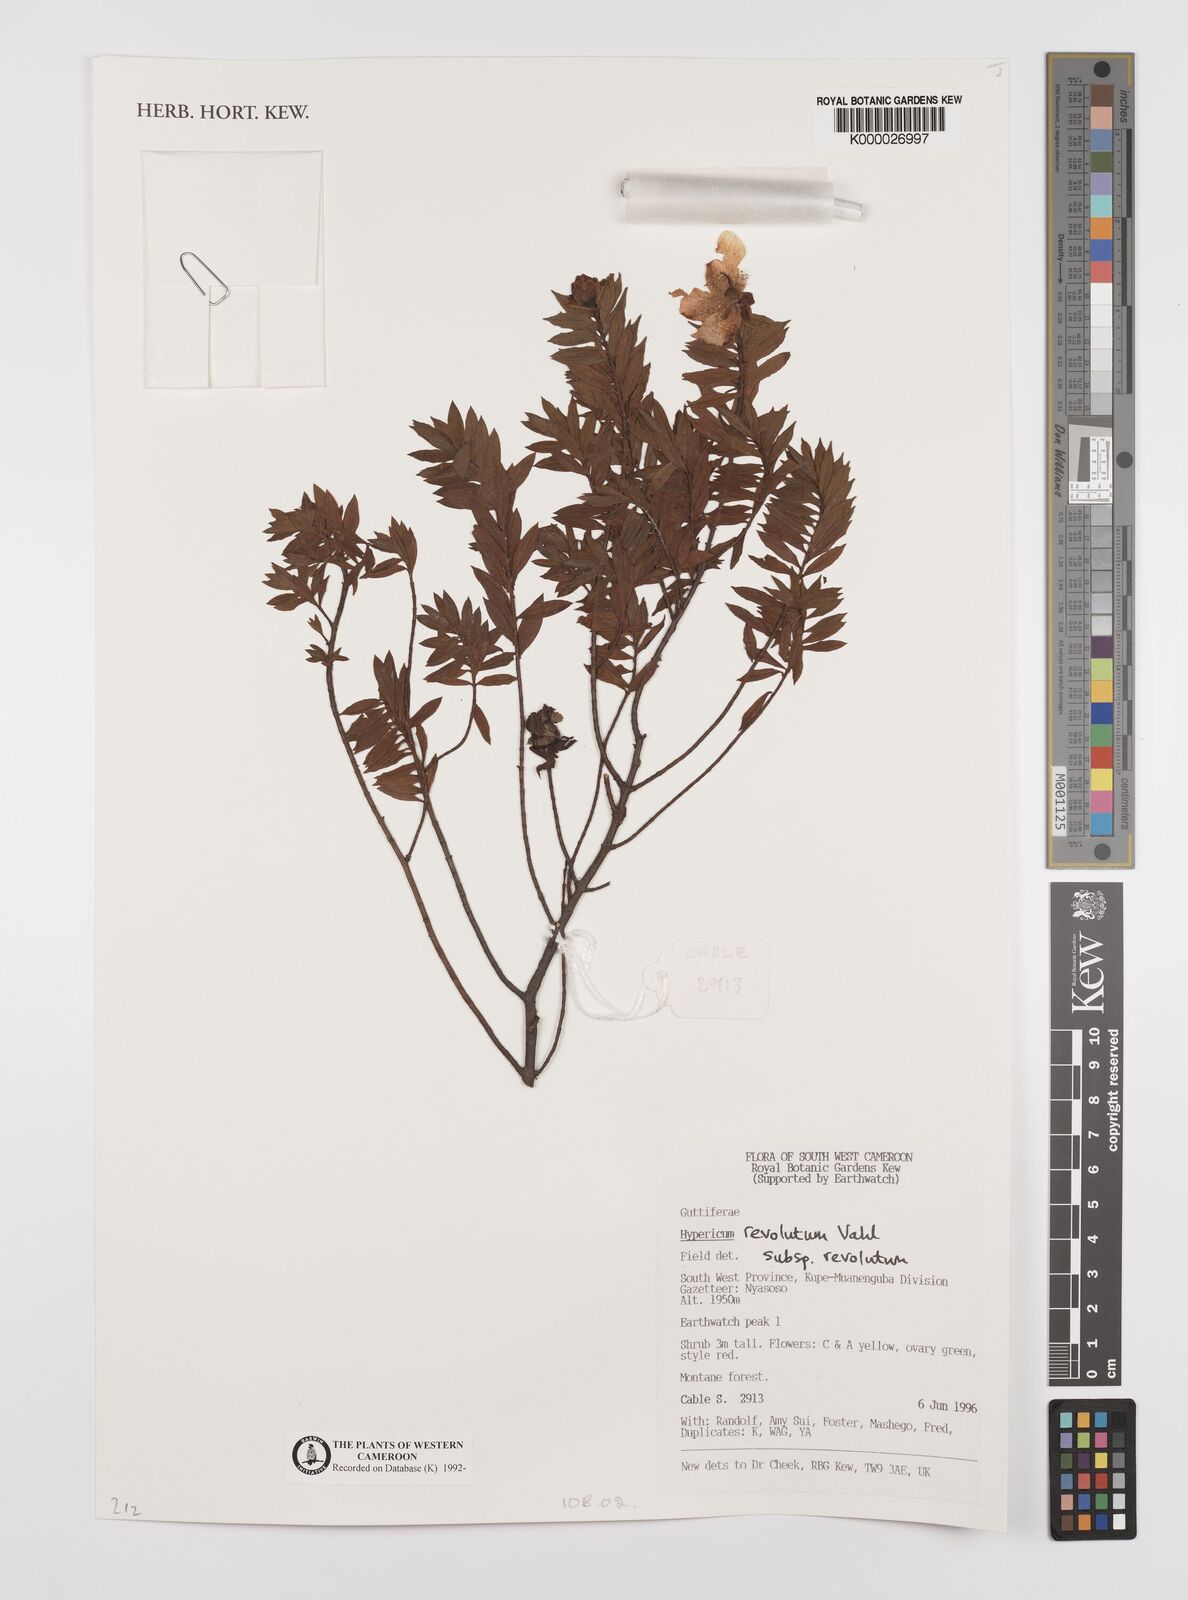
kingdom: Plantae
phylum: Tracheophyta
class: Magnoliopsida
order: Malpighiales
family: Hypericaceae
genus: Hypericum
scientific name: Hypericum revolutum
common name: Curry bush
